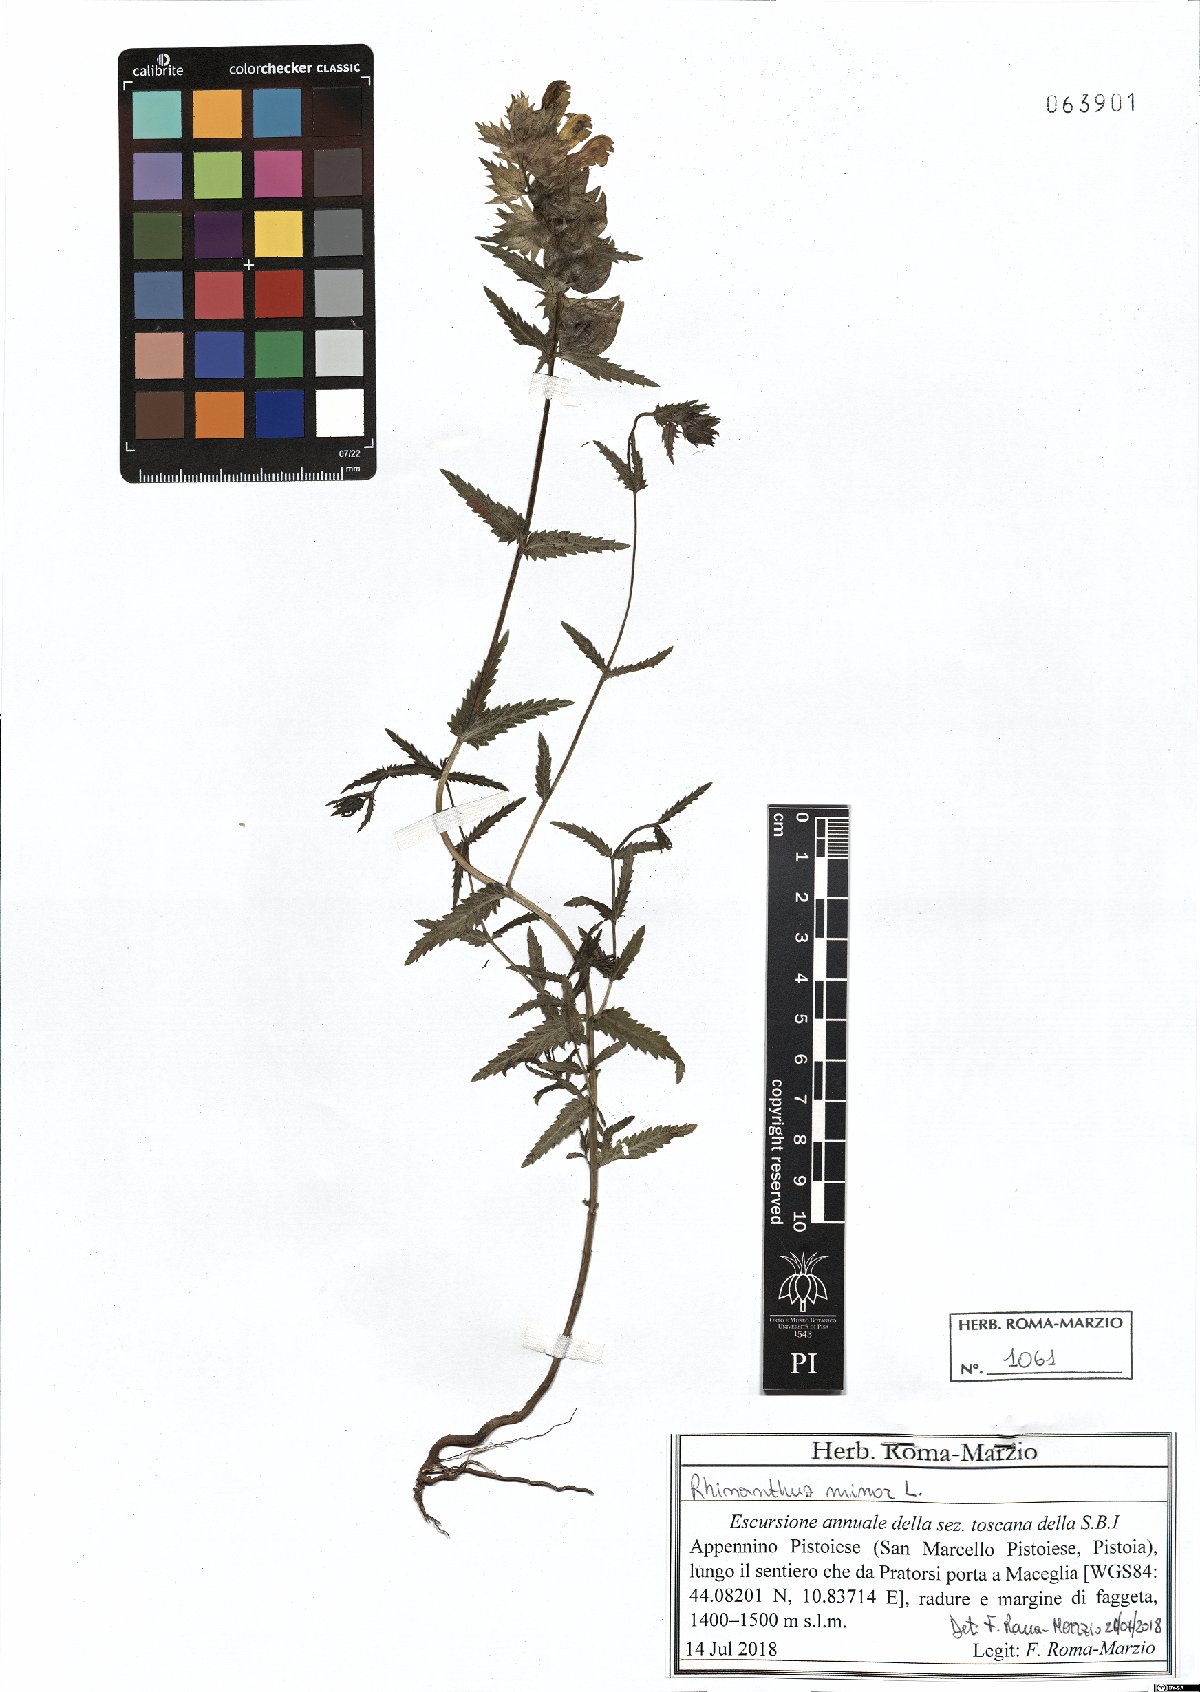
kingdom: Plantae
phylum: Tracheophyta
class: Magnoliopsida
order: Lamiales
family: Orobanchaceae
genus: Rhinanthus
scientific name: Rhinanthus minor
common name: Yellow-rattle
